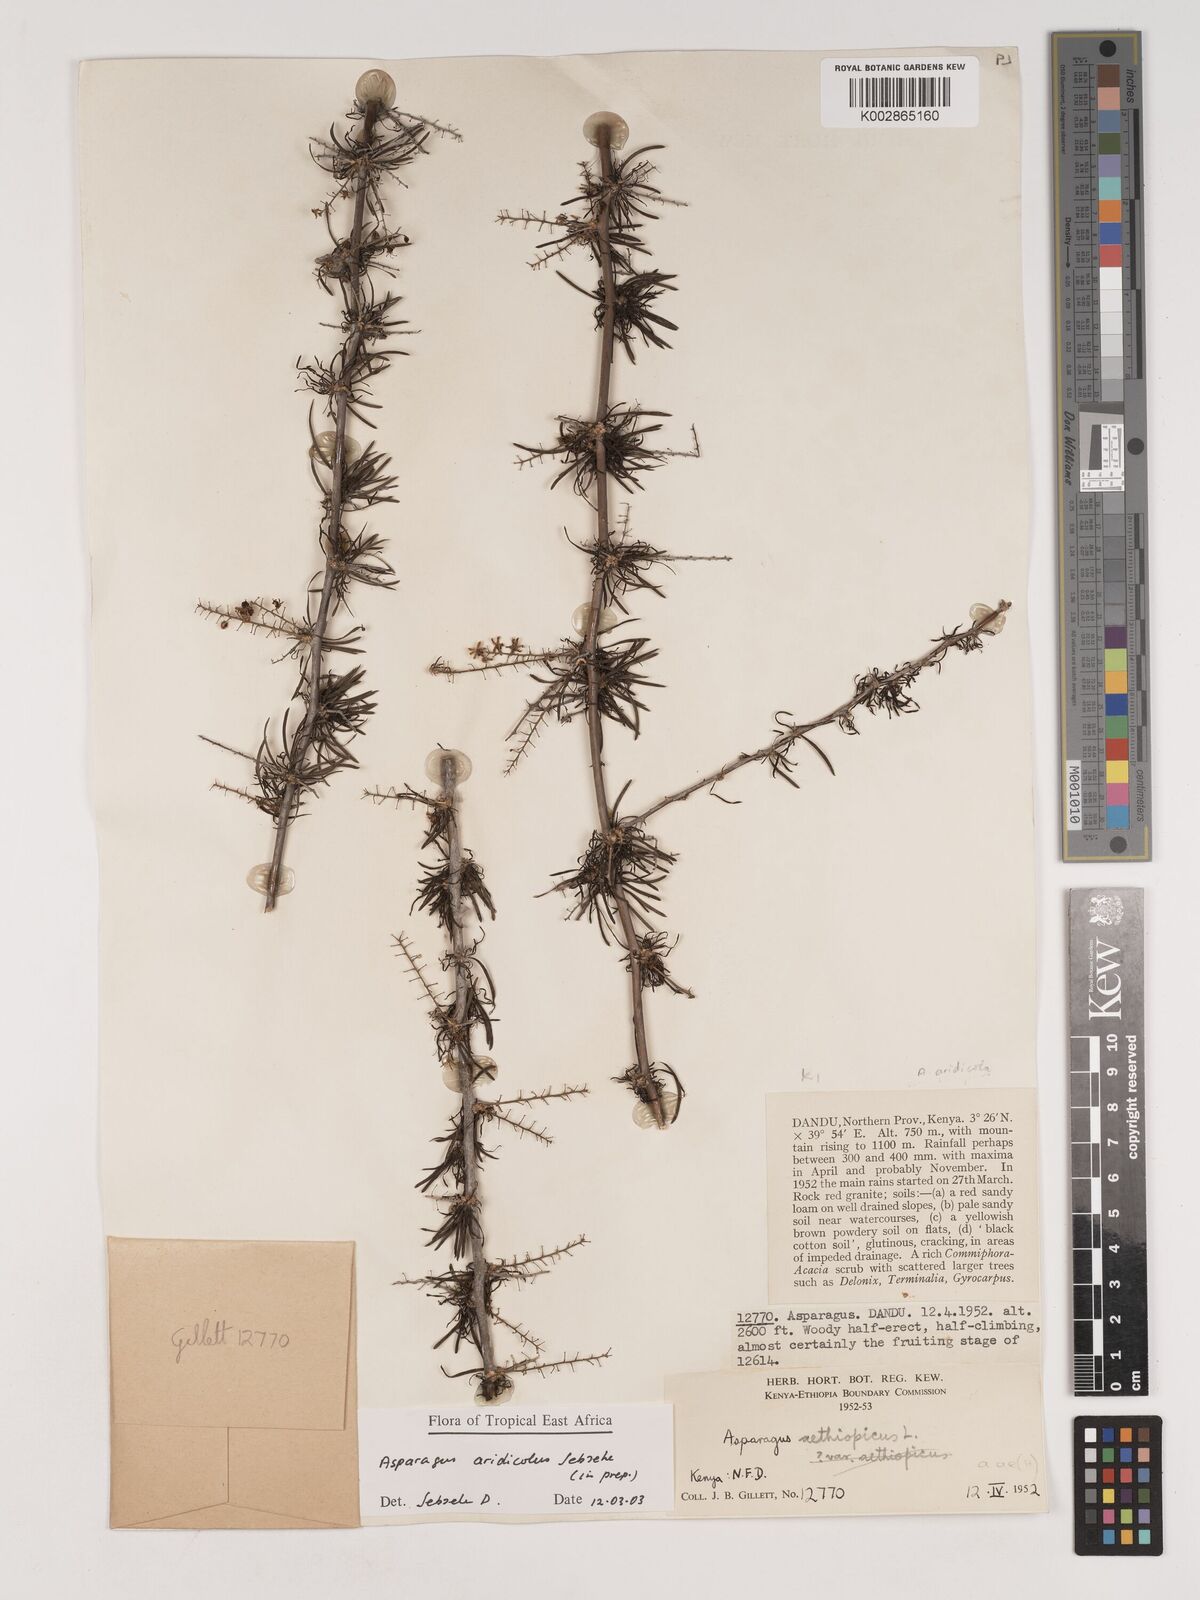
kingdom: Plantae
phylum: Tracheophyta
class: Liliopsida
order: Asparagales
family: Asparagaceae
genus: Asparagus
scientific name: Asparagus aridicola
